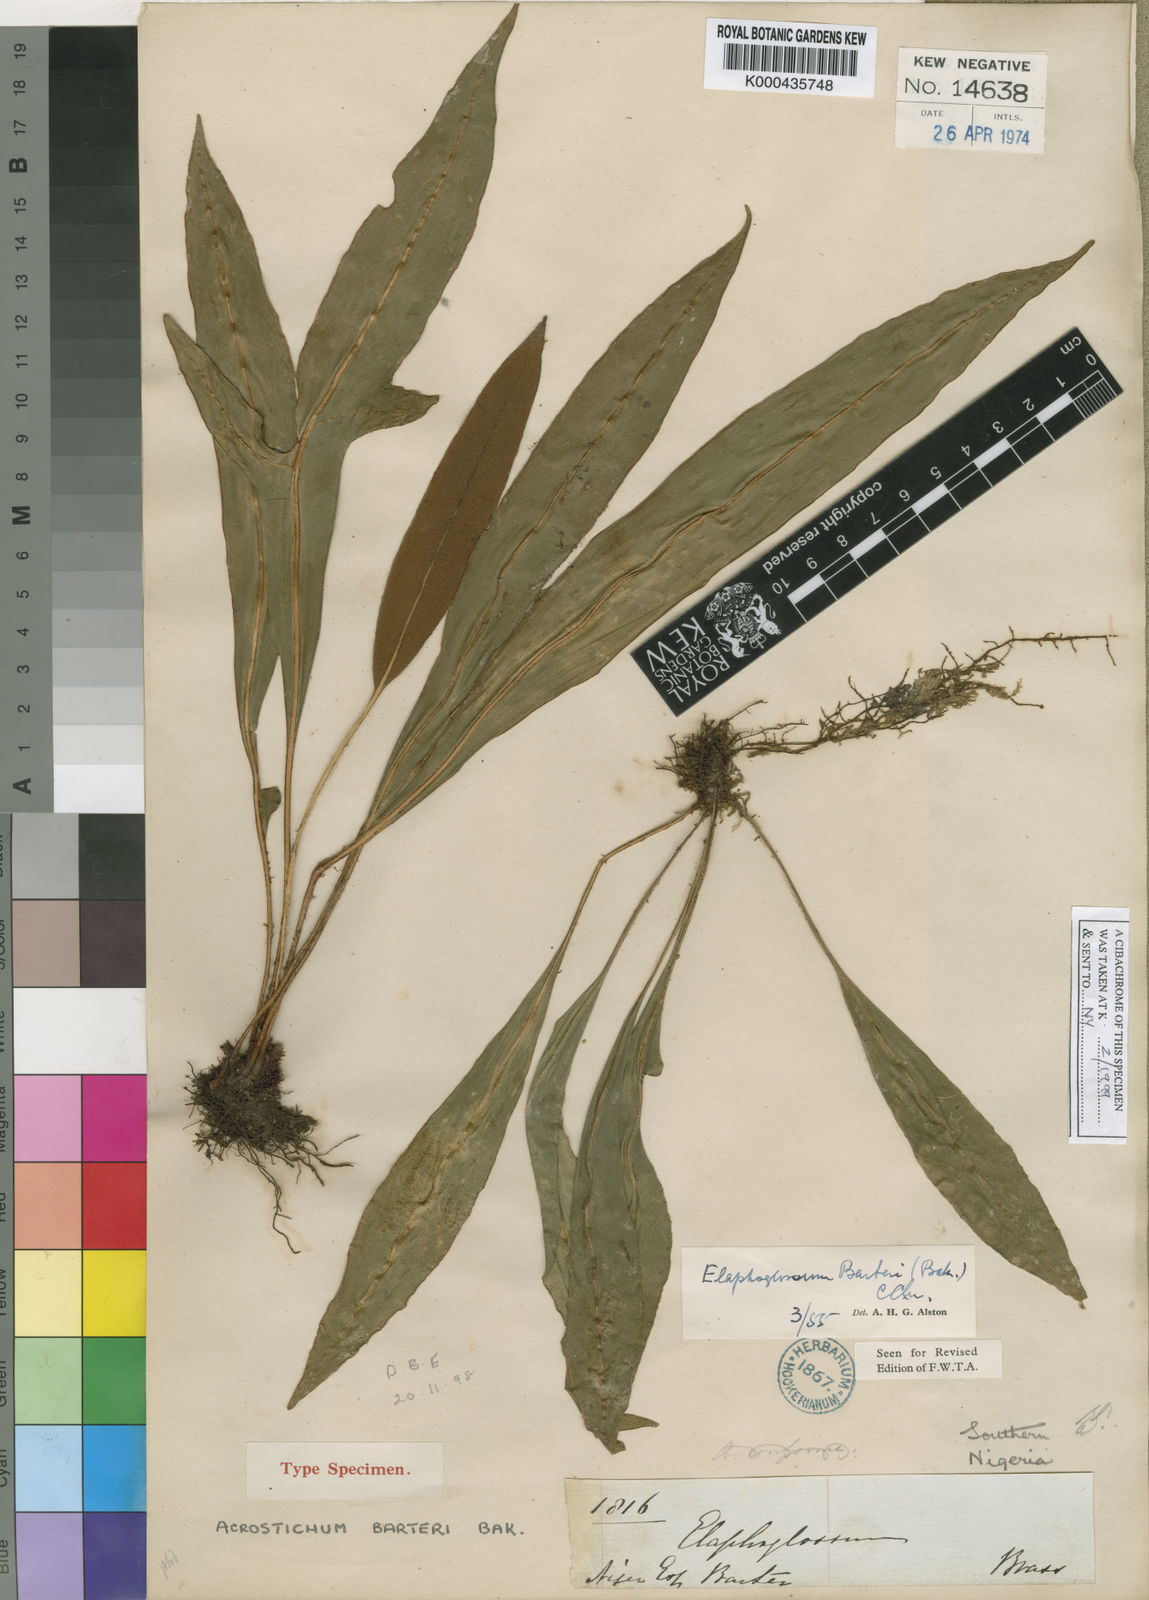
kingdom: Plantae
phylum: Tracheophyta
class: Polypodiopsida
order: Polypodiales
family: Dryopteridaceae
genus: Elaphoglossum
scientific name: Elaphoglossum barteri
